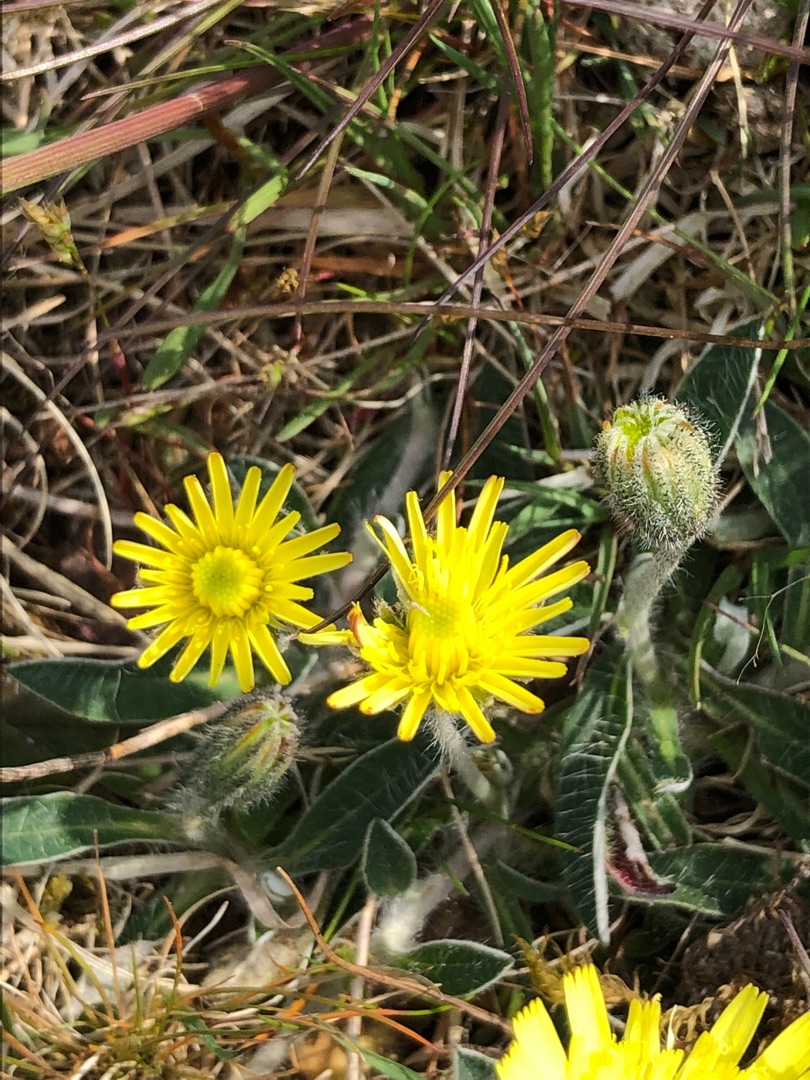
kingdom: Plantae
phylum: Tracheophyta
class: Magnoliopsida
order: Asterales
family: Asteraceae
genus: Pilosella
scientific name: Pilosella officinarum
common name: Håret høgeurt
